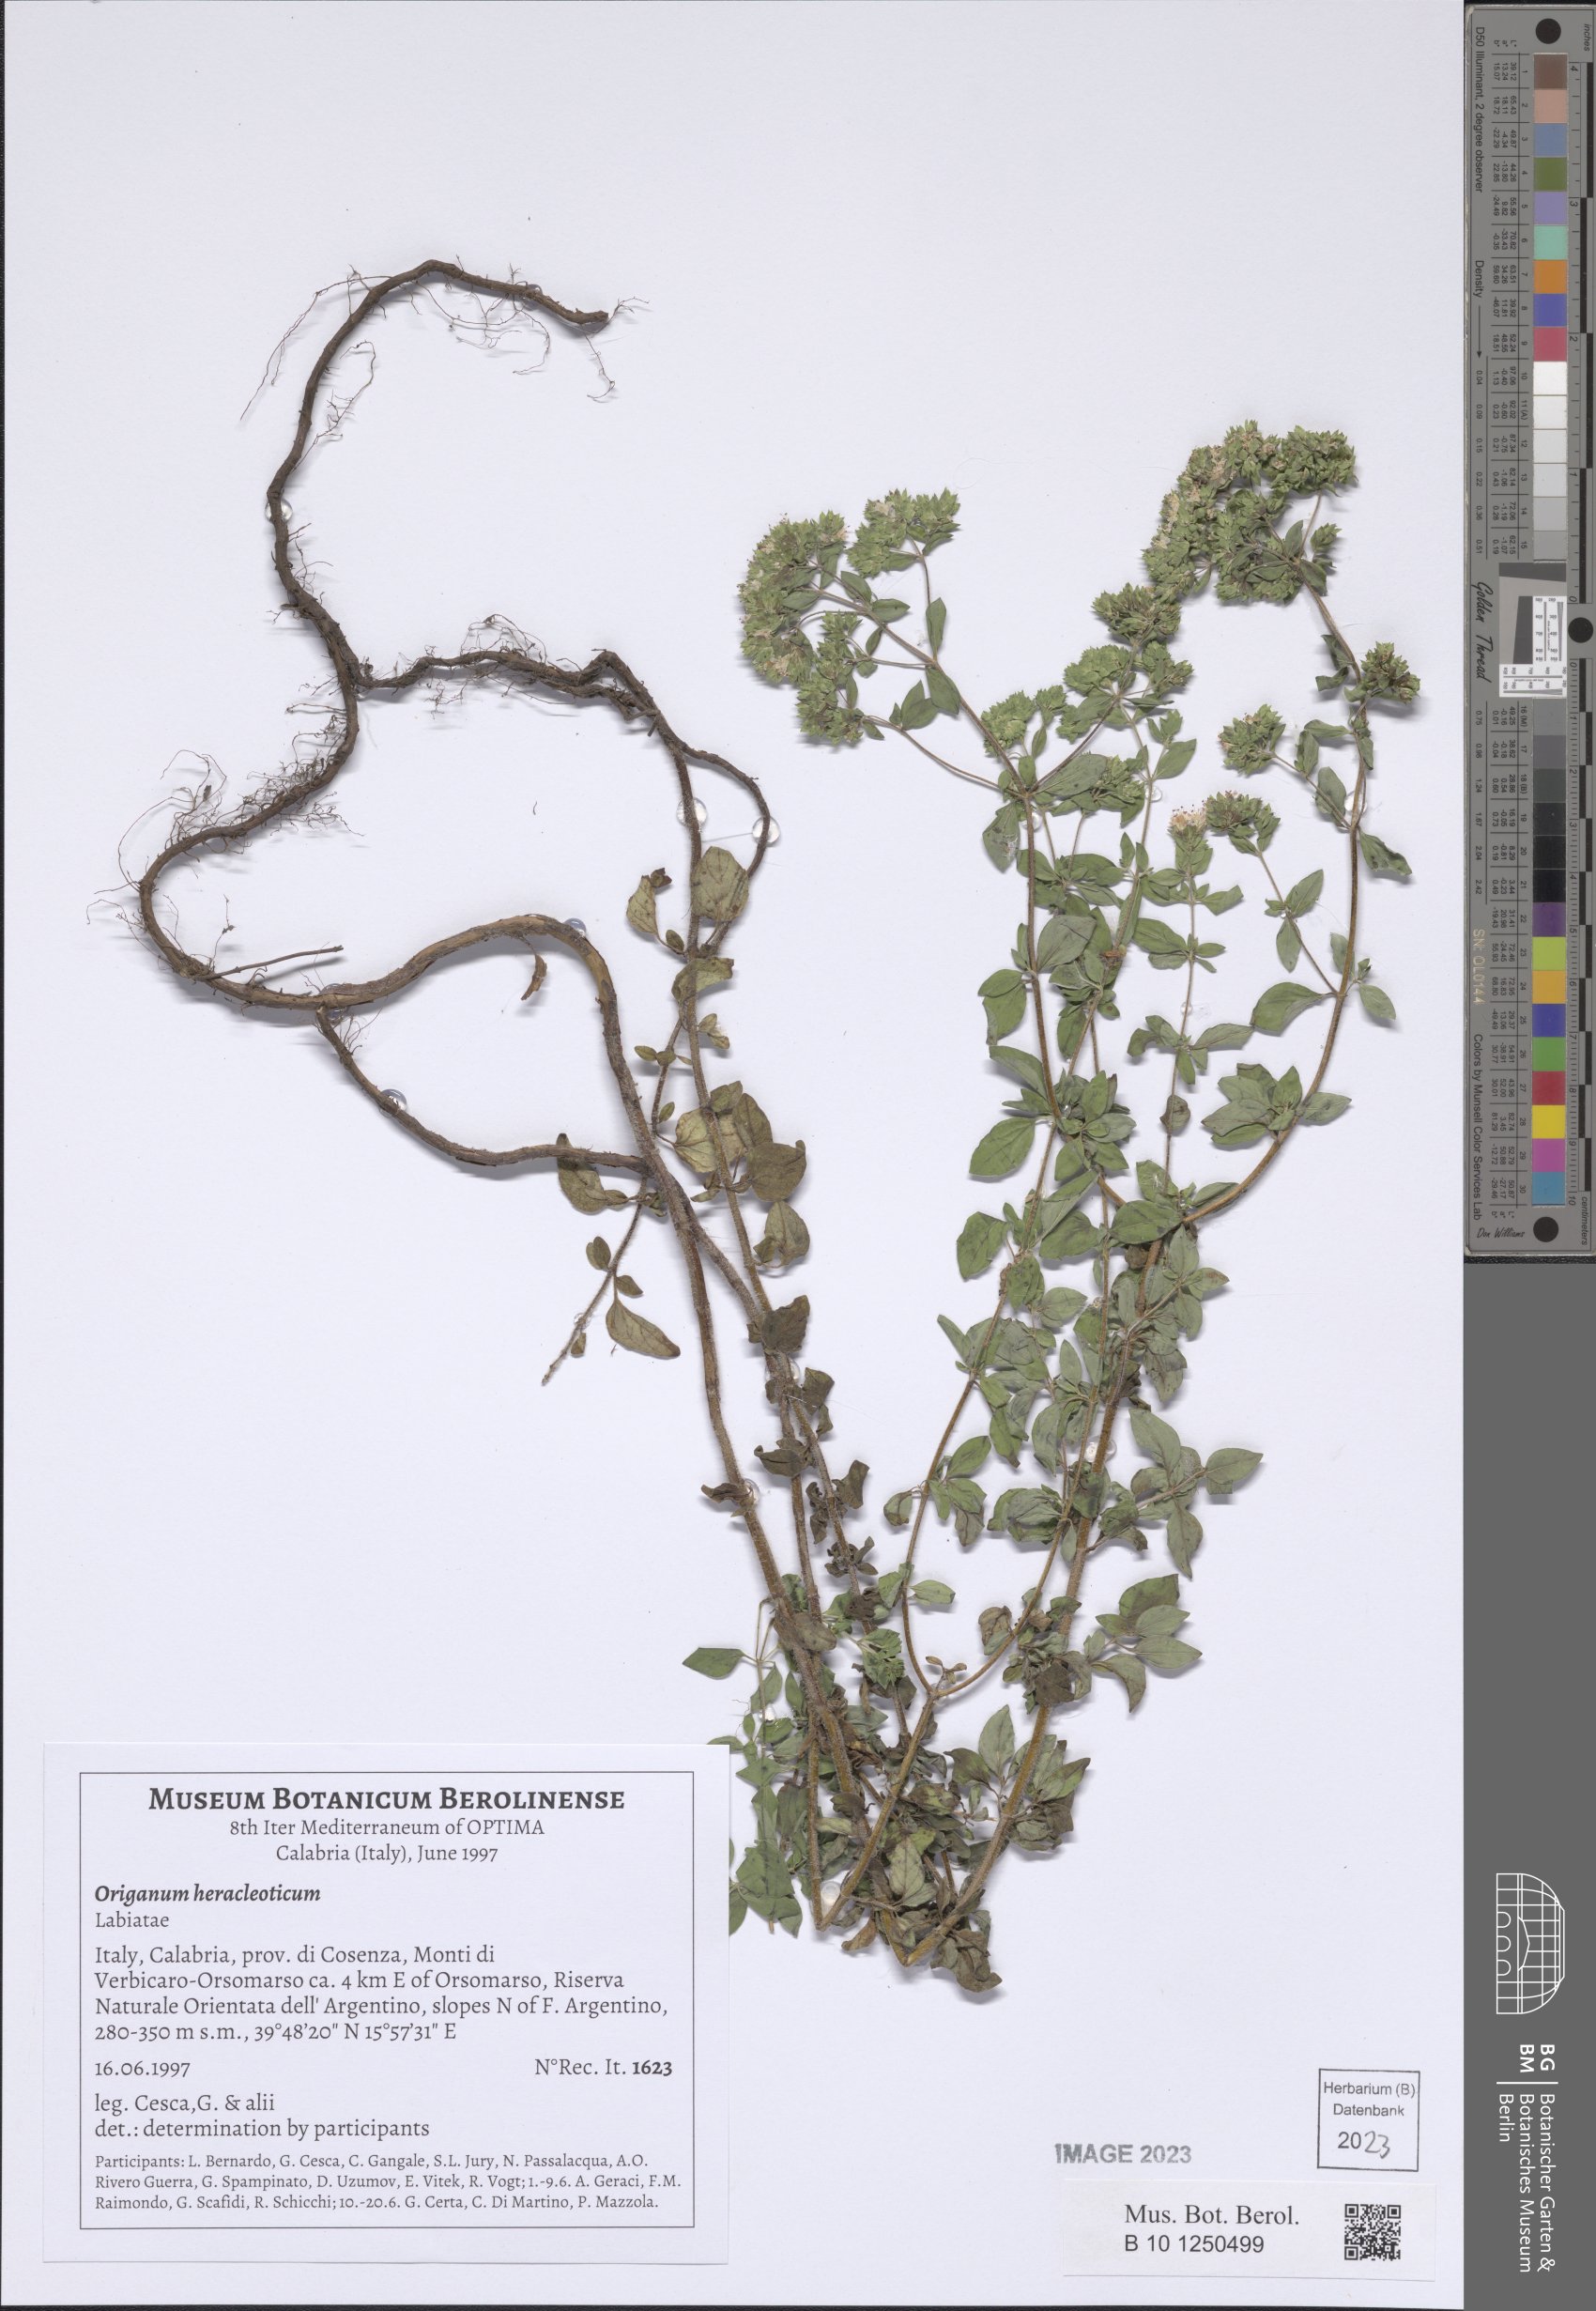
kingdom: Plantae
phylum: Tracheophyta
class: Magnoliopsida
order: Lamiales
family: Lamiaceae
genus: Origanum
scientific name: Origanum vulgare
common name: Wild marjoram
